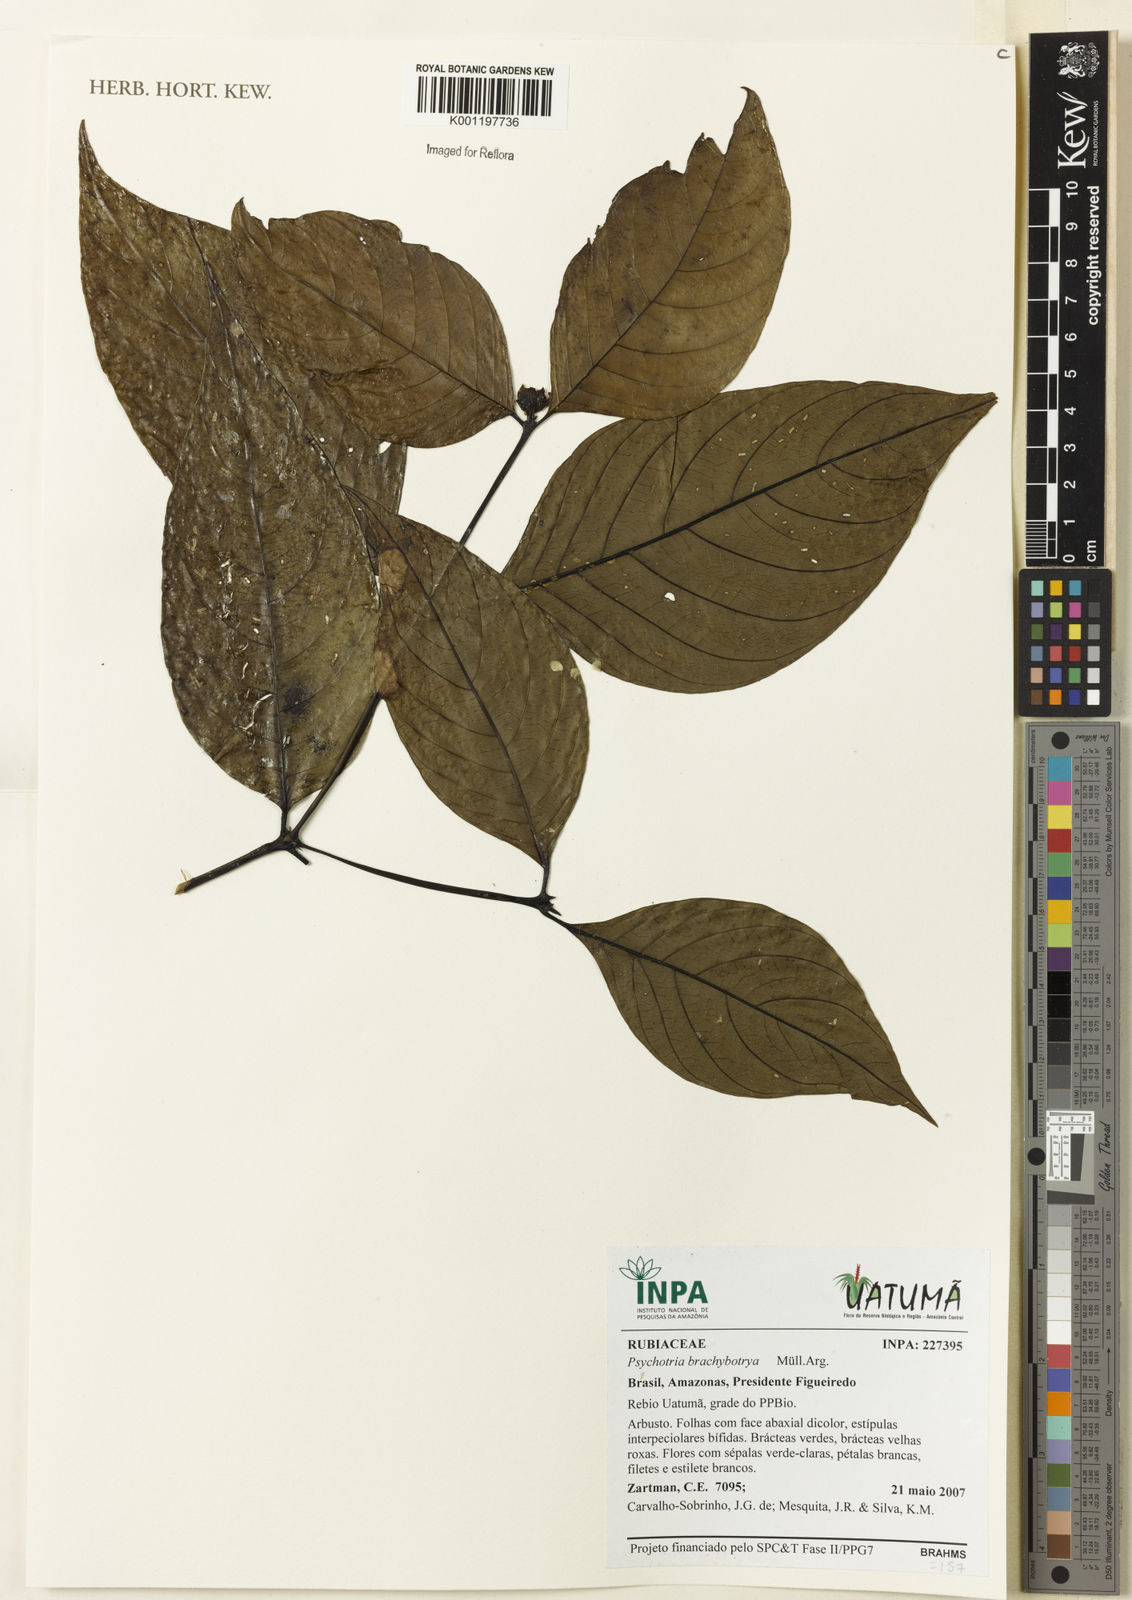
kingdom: Plantae
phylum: Tracheophyta
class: Magnoliopsida
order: Gentianales
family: Rubiaceae
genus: Psychotria
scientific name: Psychotria
